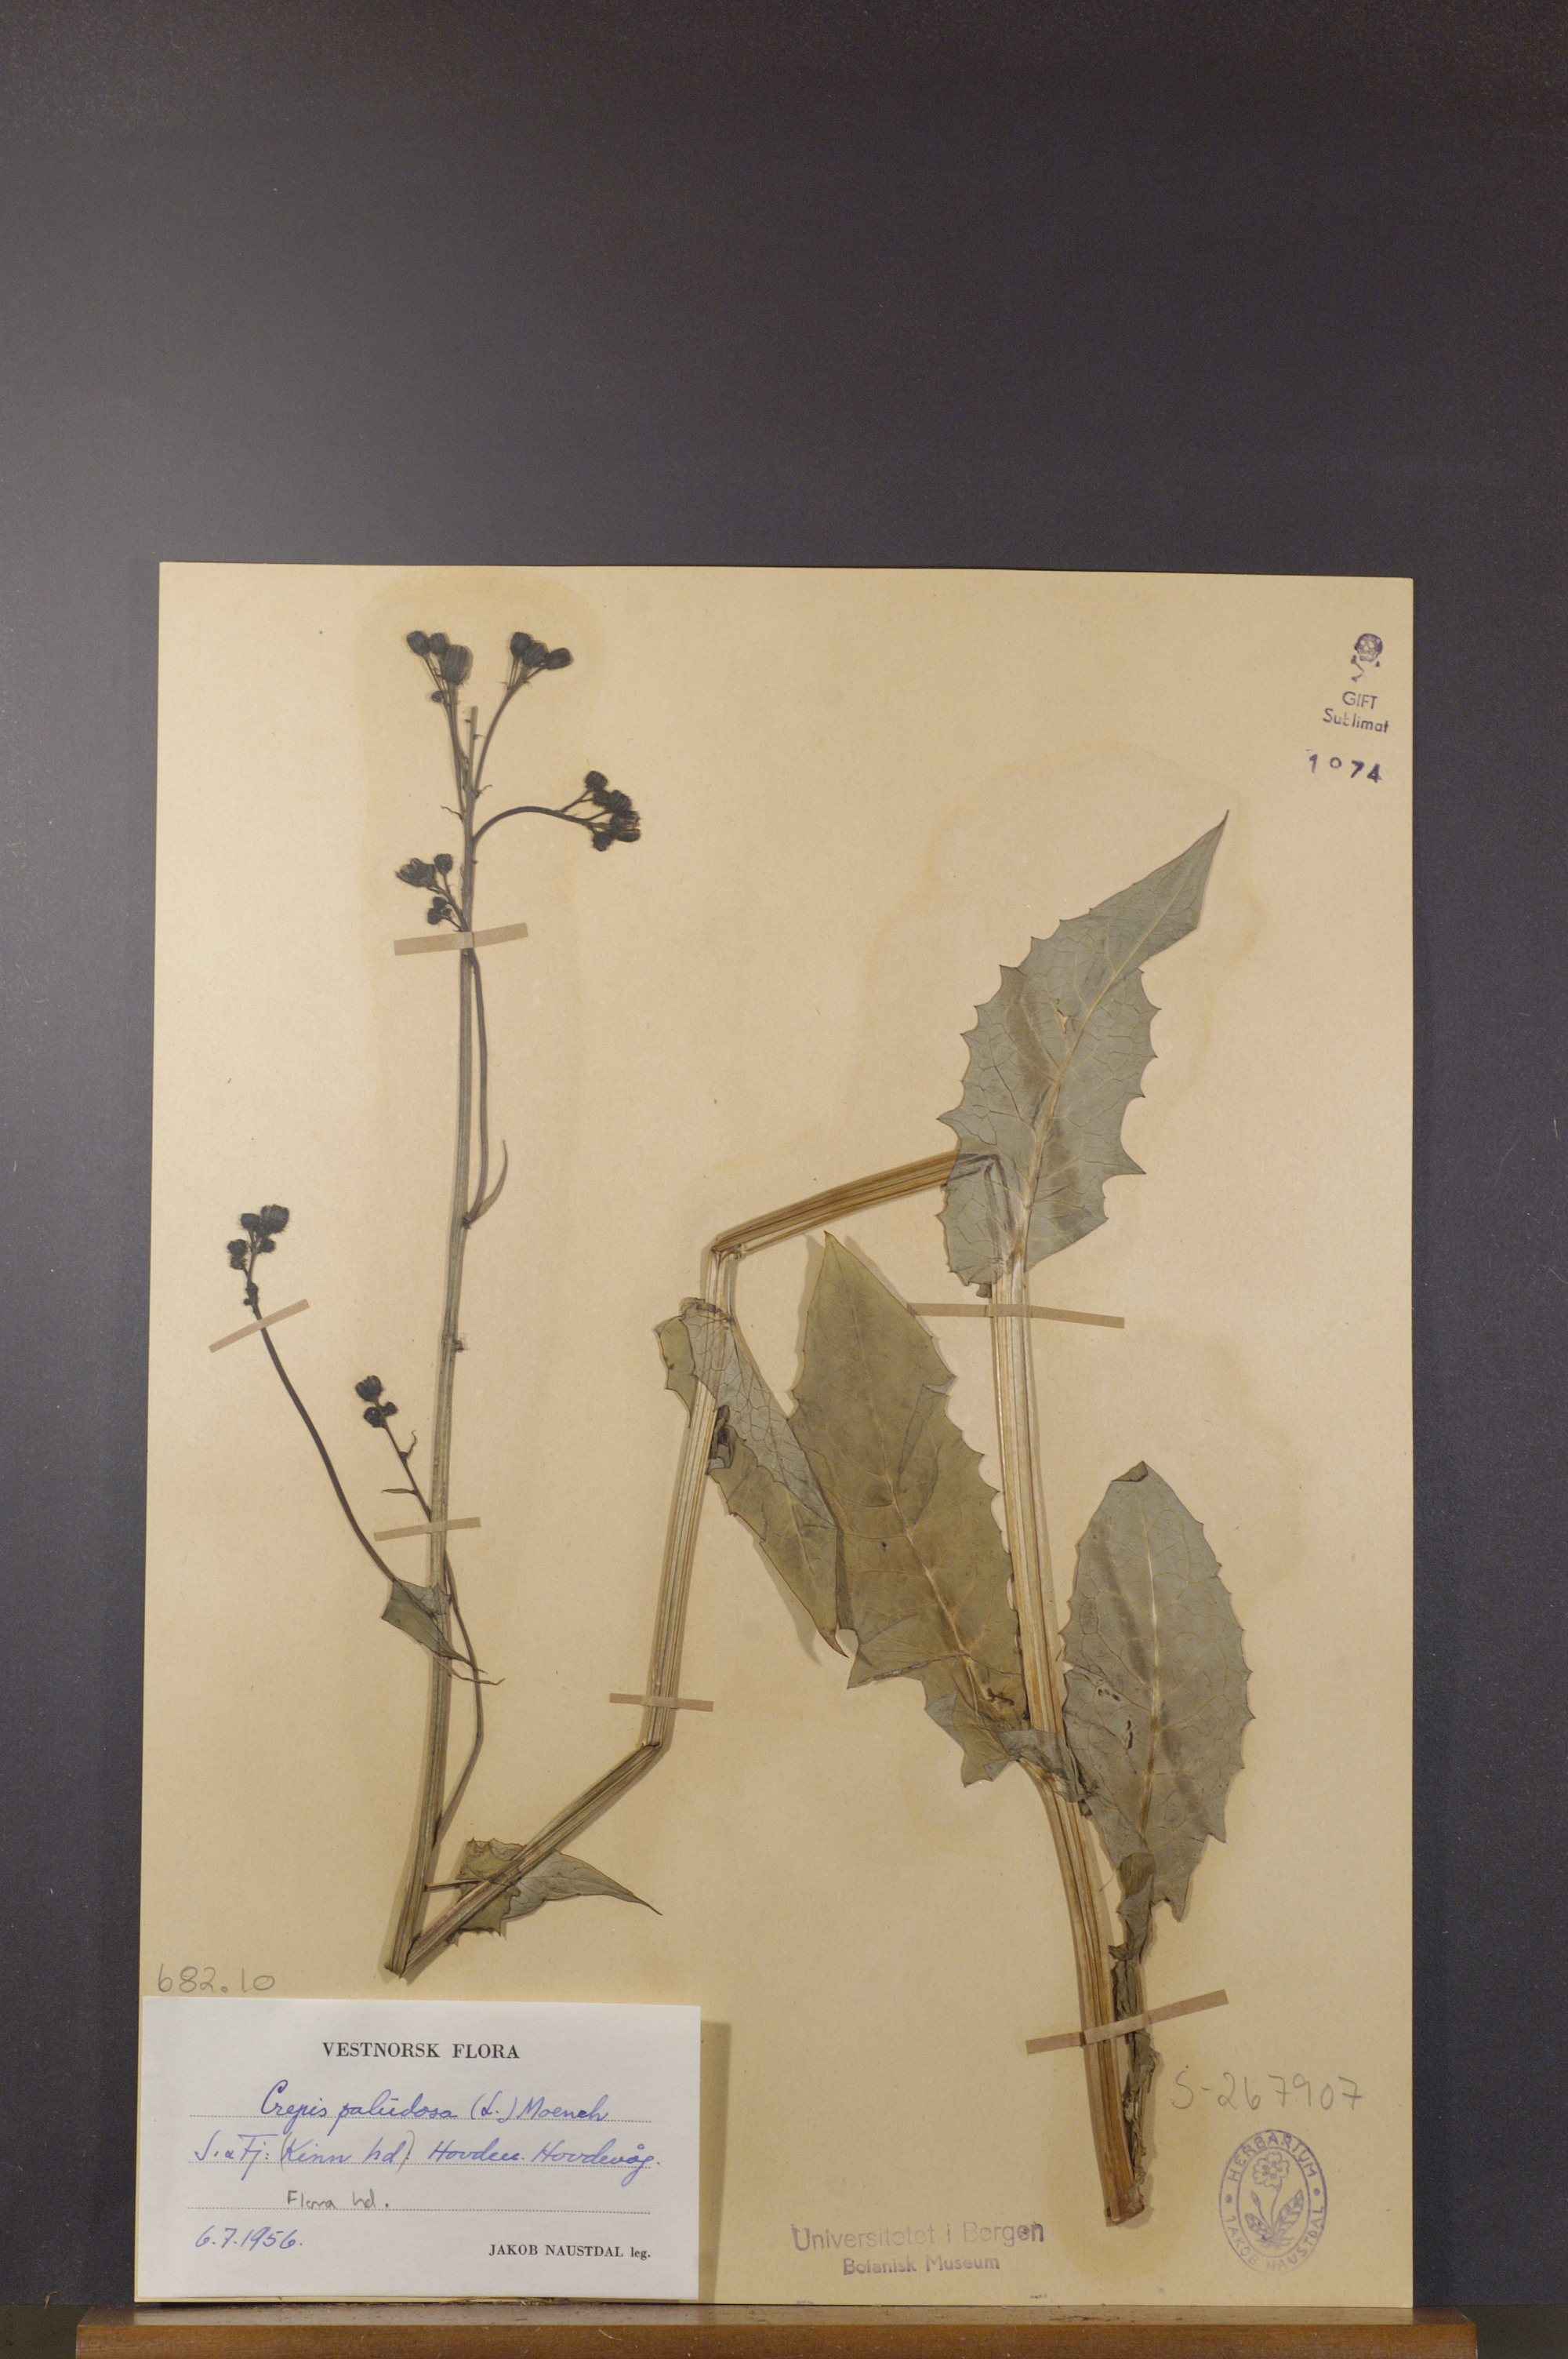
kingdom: Plantae
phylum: Tracheophyta
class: Magnoliopsida
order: Asterales
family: Asteraceae
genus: Crepis
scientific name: Crepis paludosa
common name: Marsh hawk's-beard
